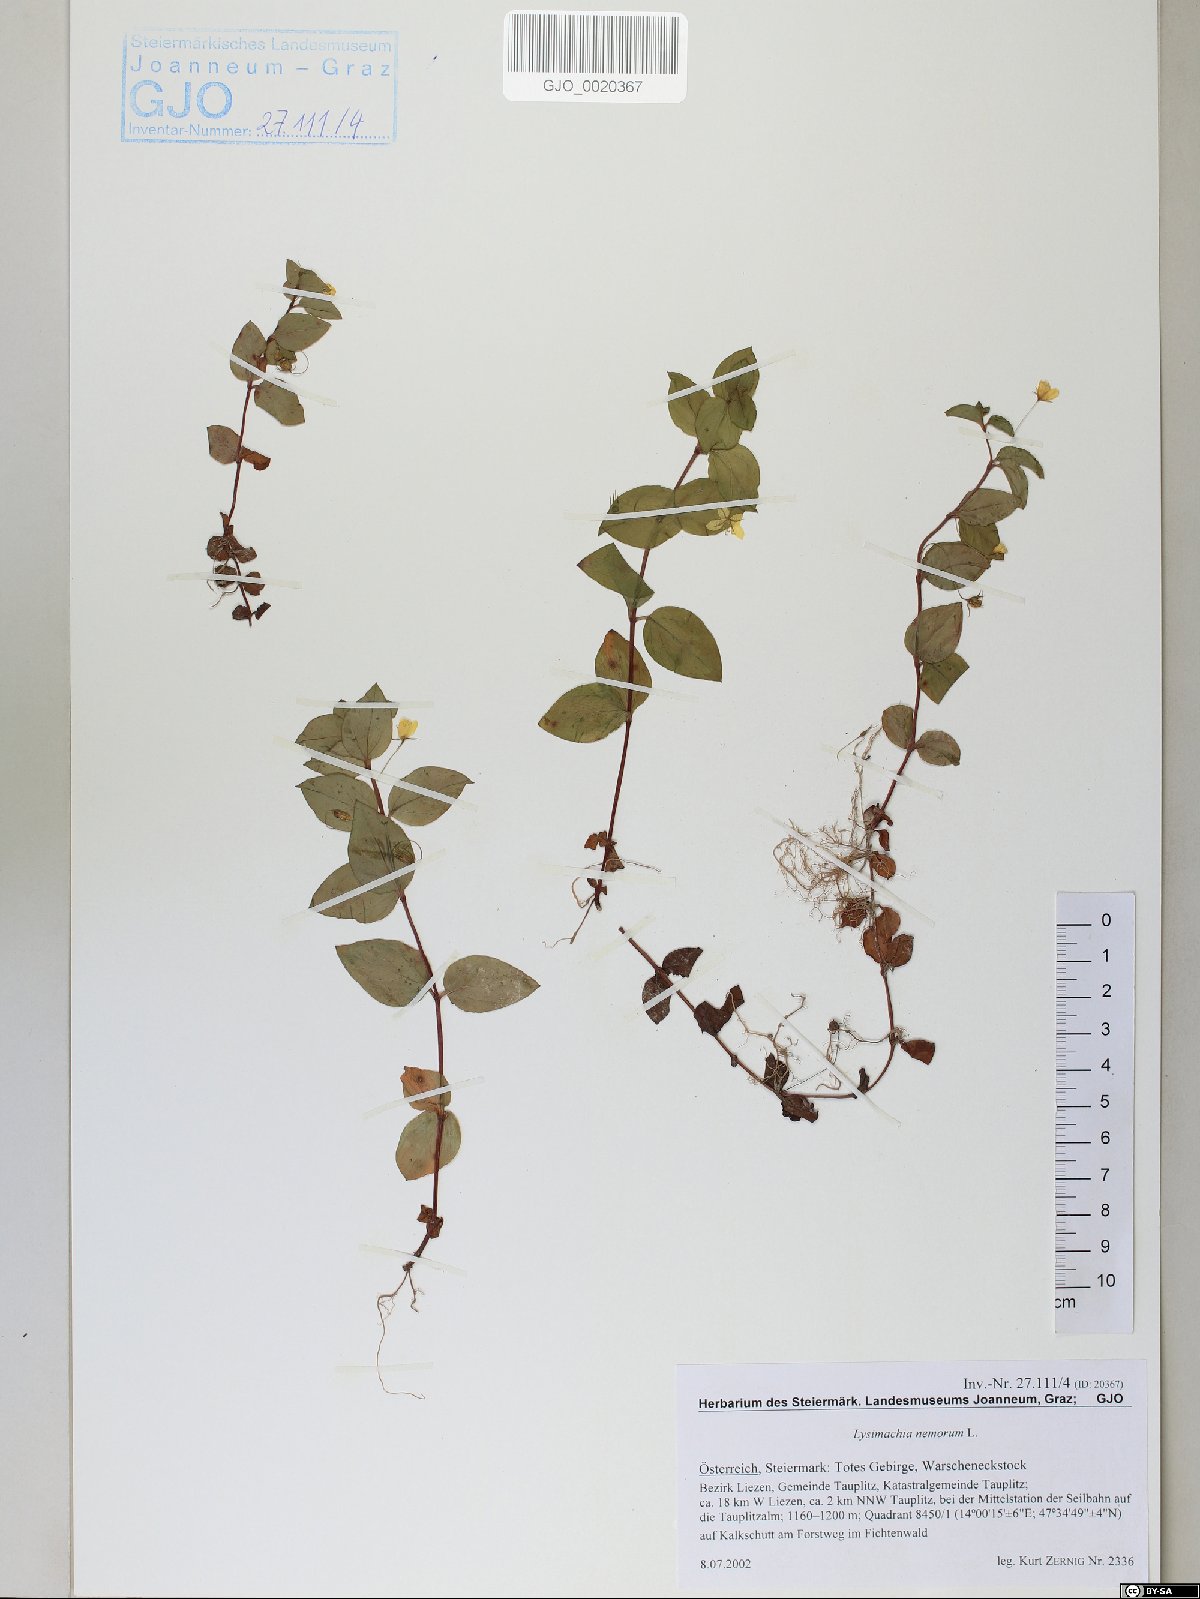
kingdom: Plantae
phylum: Tracheophyta
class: Magnoliopsida
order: Ericales
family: Primulaceae
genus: Lysimachia
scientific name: Lysimachia nemorum
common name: Yellow pimpernel
